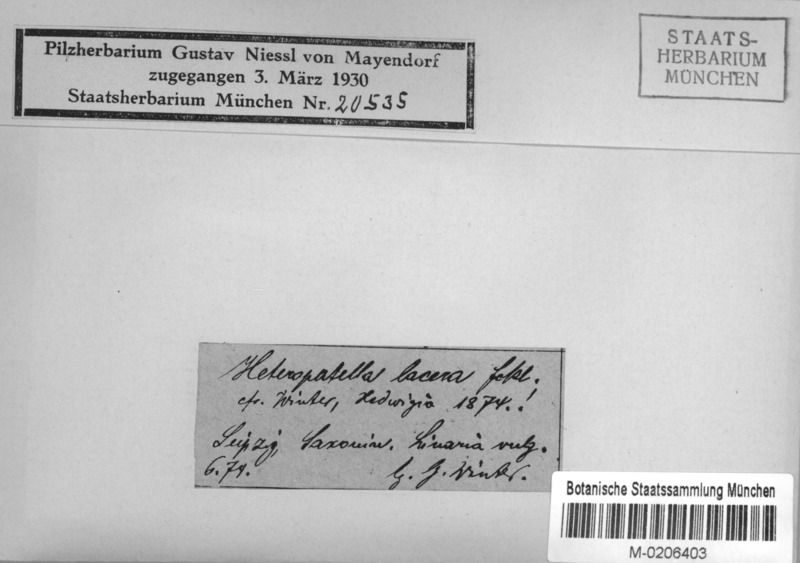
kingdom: Fungi
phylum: Ascomycota
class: Leotiomycetes
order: Helotiales
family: Heterosphaeriaceae
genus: Heteropatella
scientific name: Heteropatella lacera
